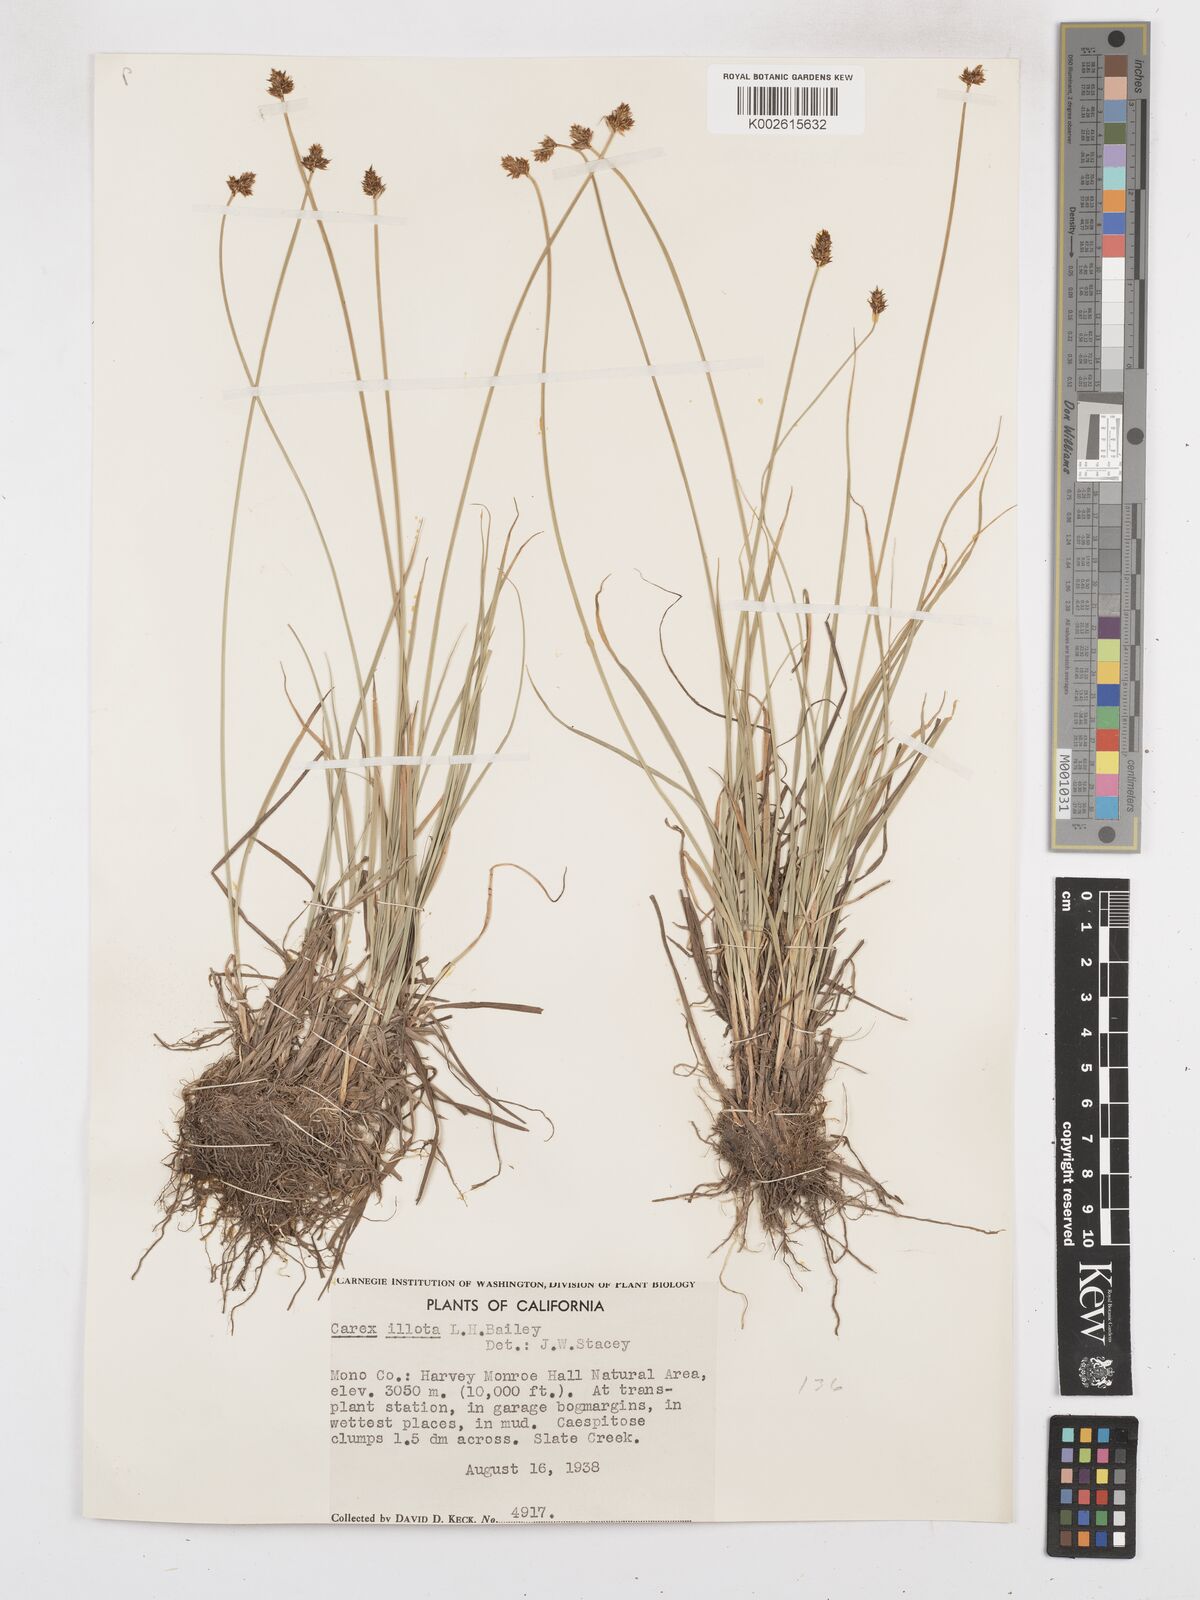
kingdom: Plantae
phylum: Tracheophyta
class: Liliopsida
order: Poales
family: Cyperaceae
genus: Carex
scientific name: Carex illota
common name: Sheep sedge
